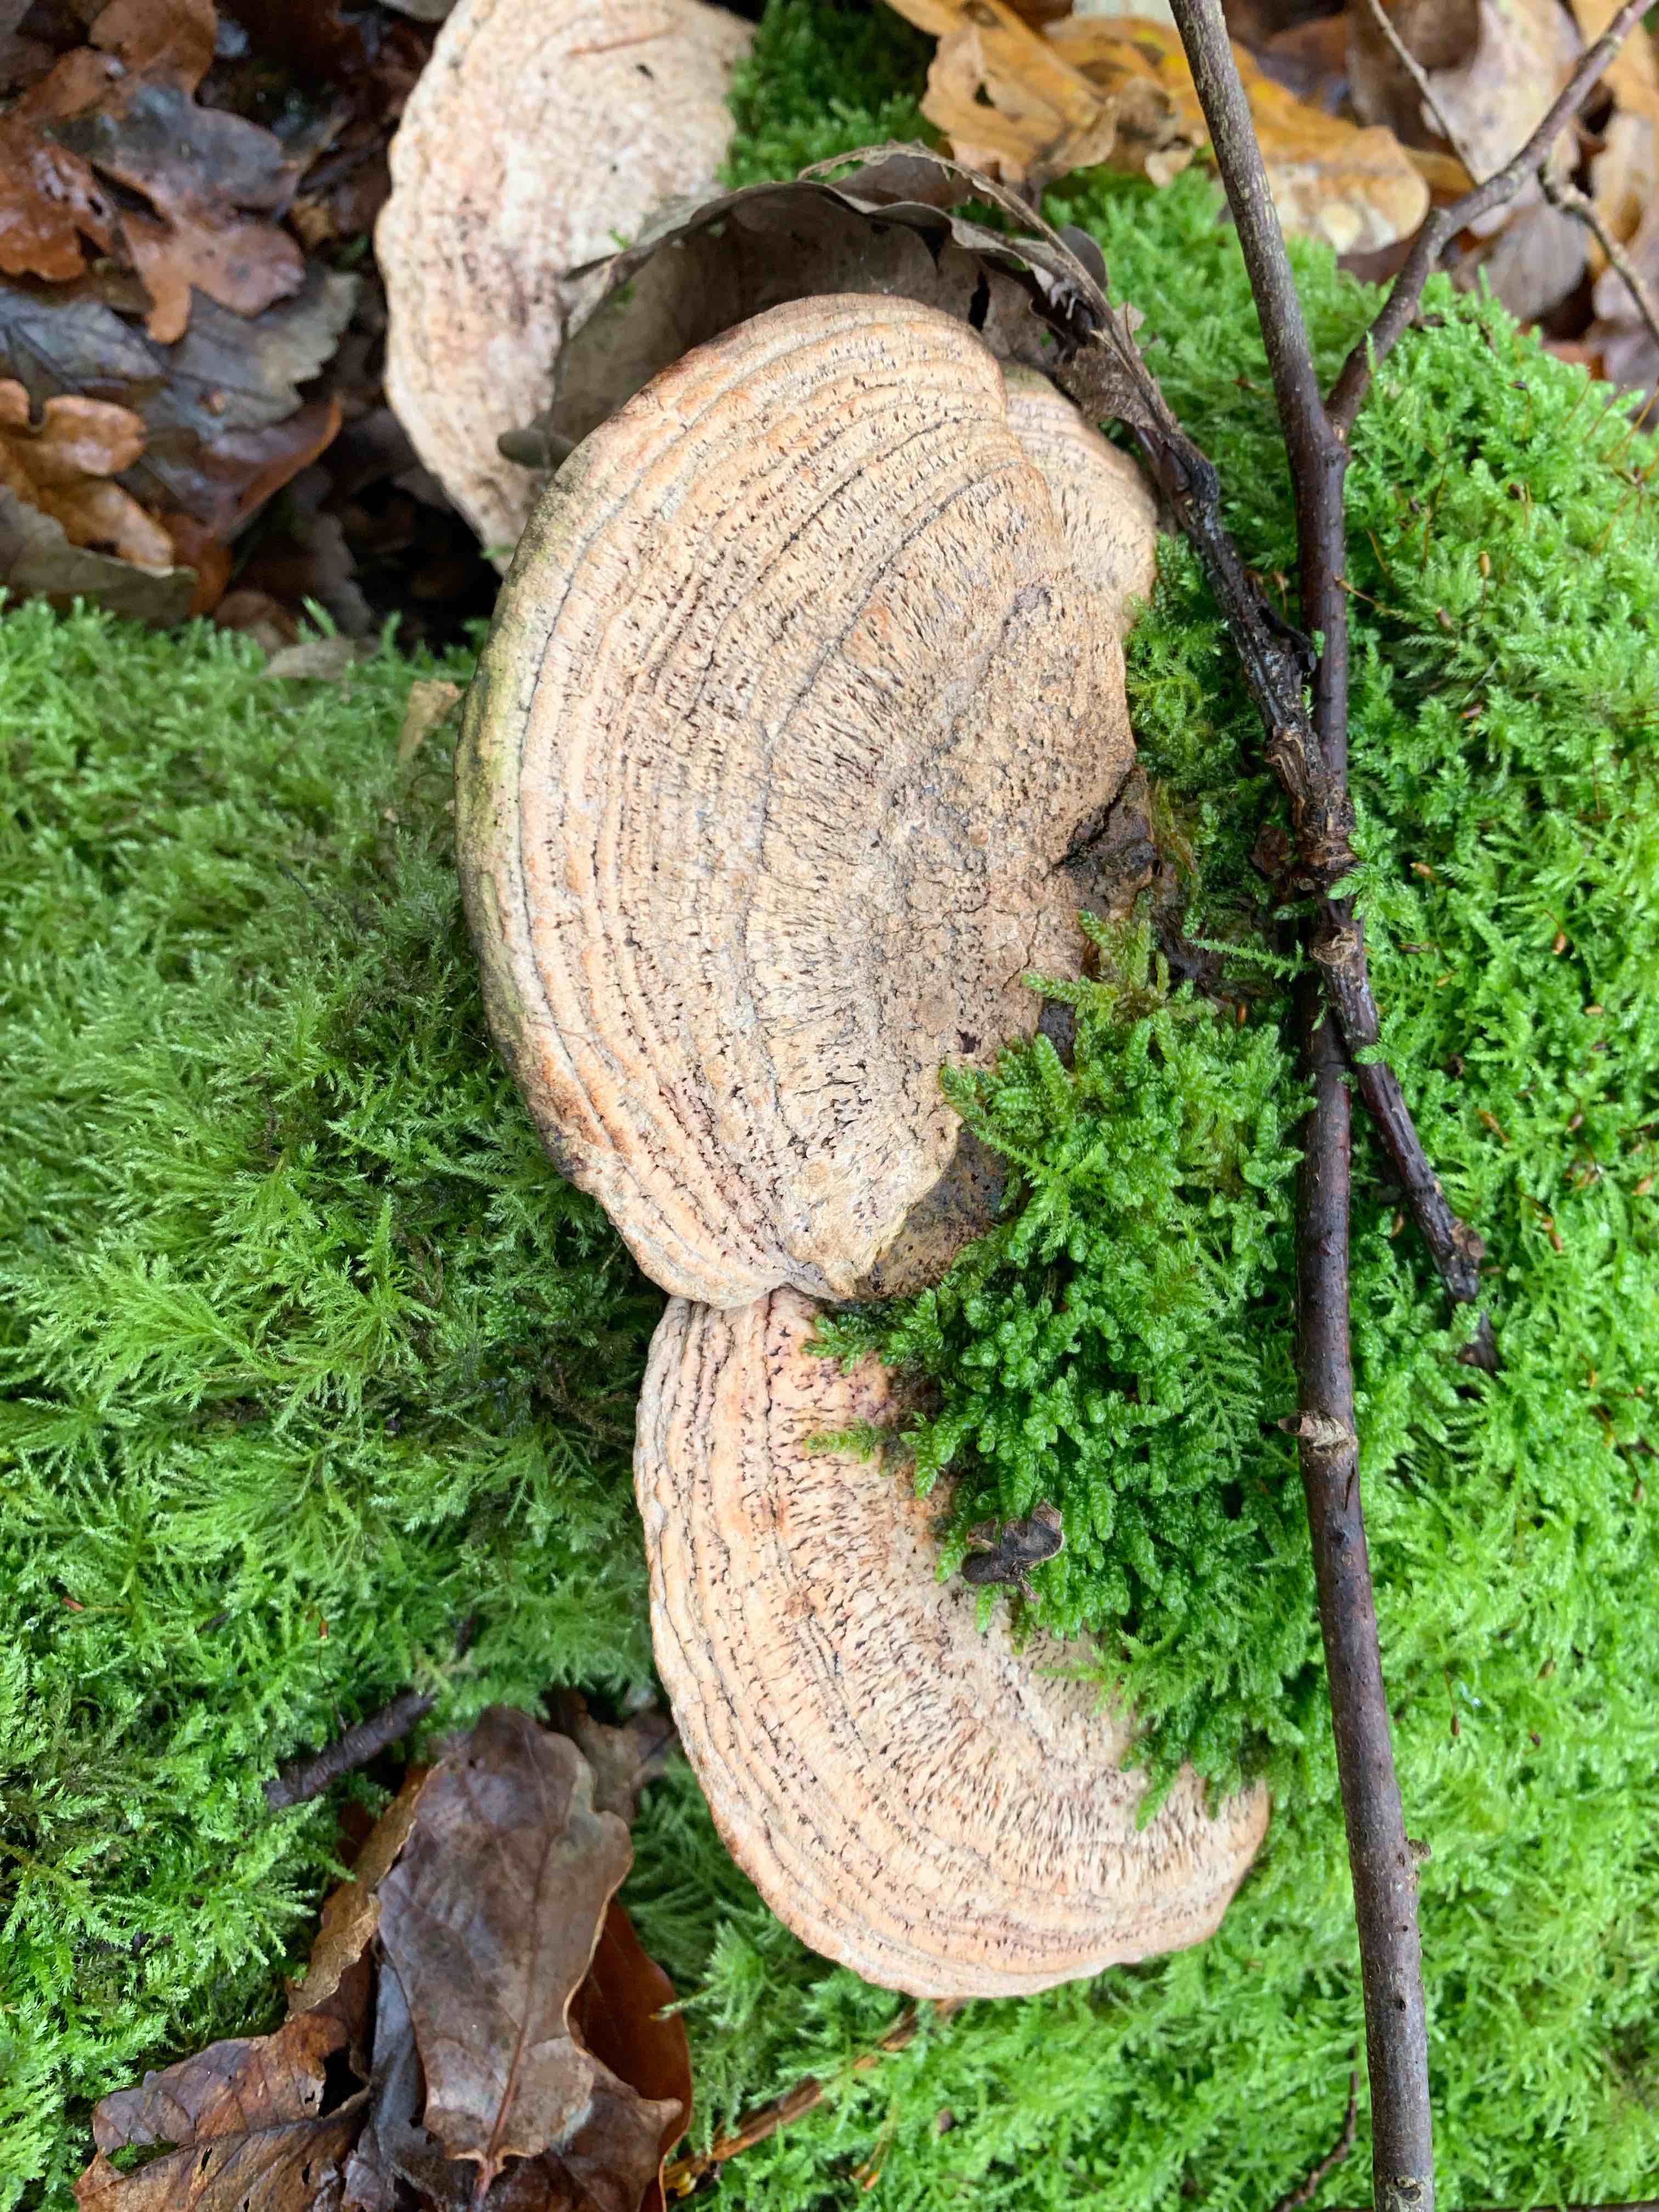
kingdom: Fungi
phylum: Basidiomycota
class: Agaricomycetes
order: Polyporales
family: Fomitopsidaceae
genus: Daedalea
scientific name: Daedalea quercina
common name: ege-labyrintsvamp
